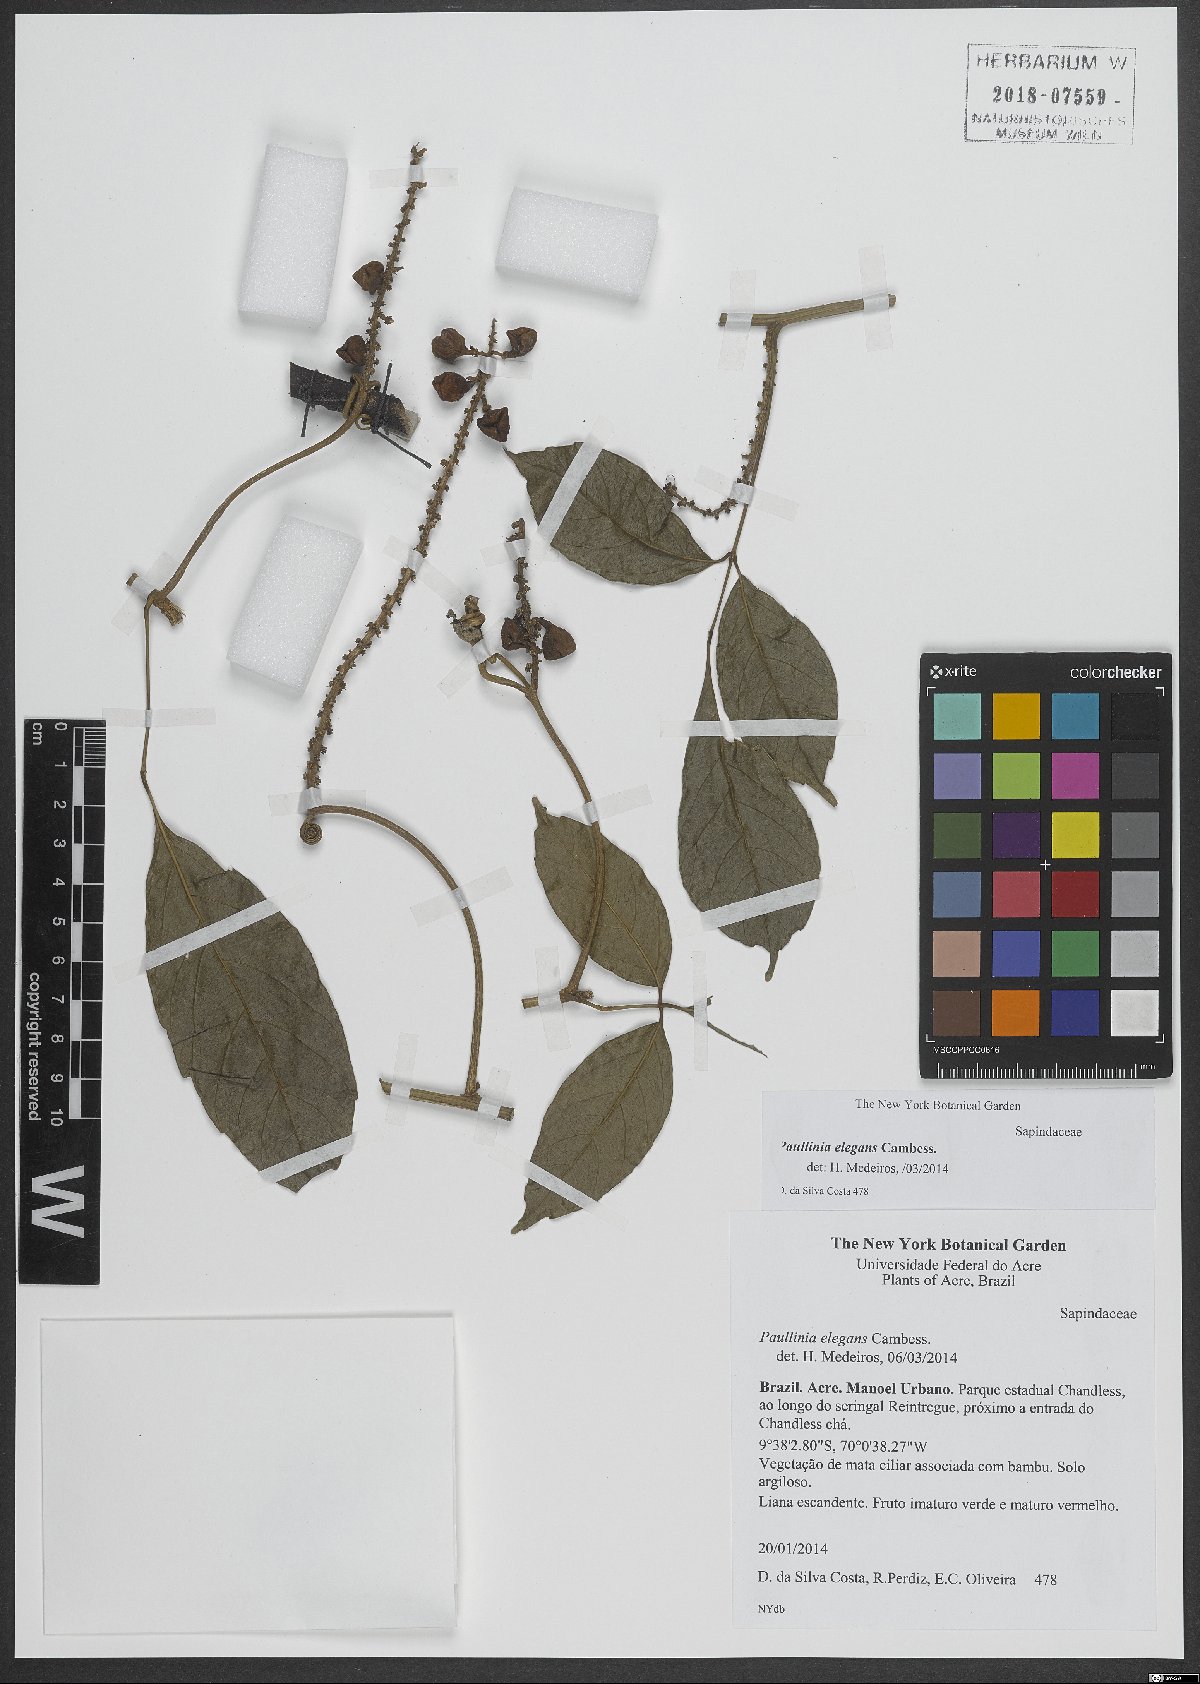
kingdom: Plantae
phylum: Tracheophyta
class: Magnoliopsida
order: Sapindales
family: Sapindaceae
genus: Paullinia
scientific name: Paullinia elegans
